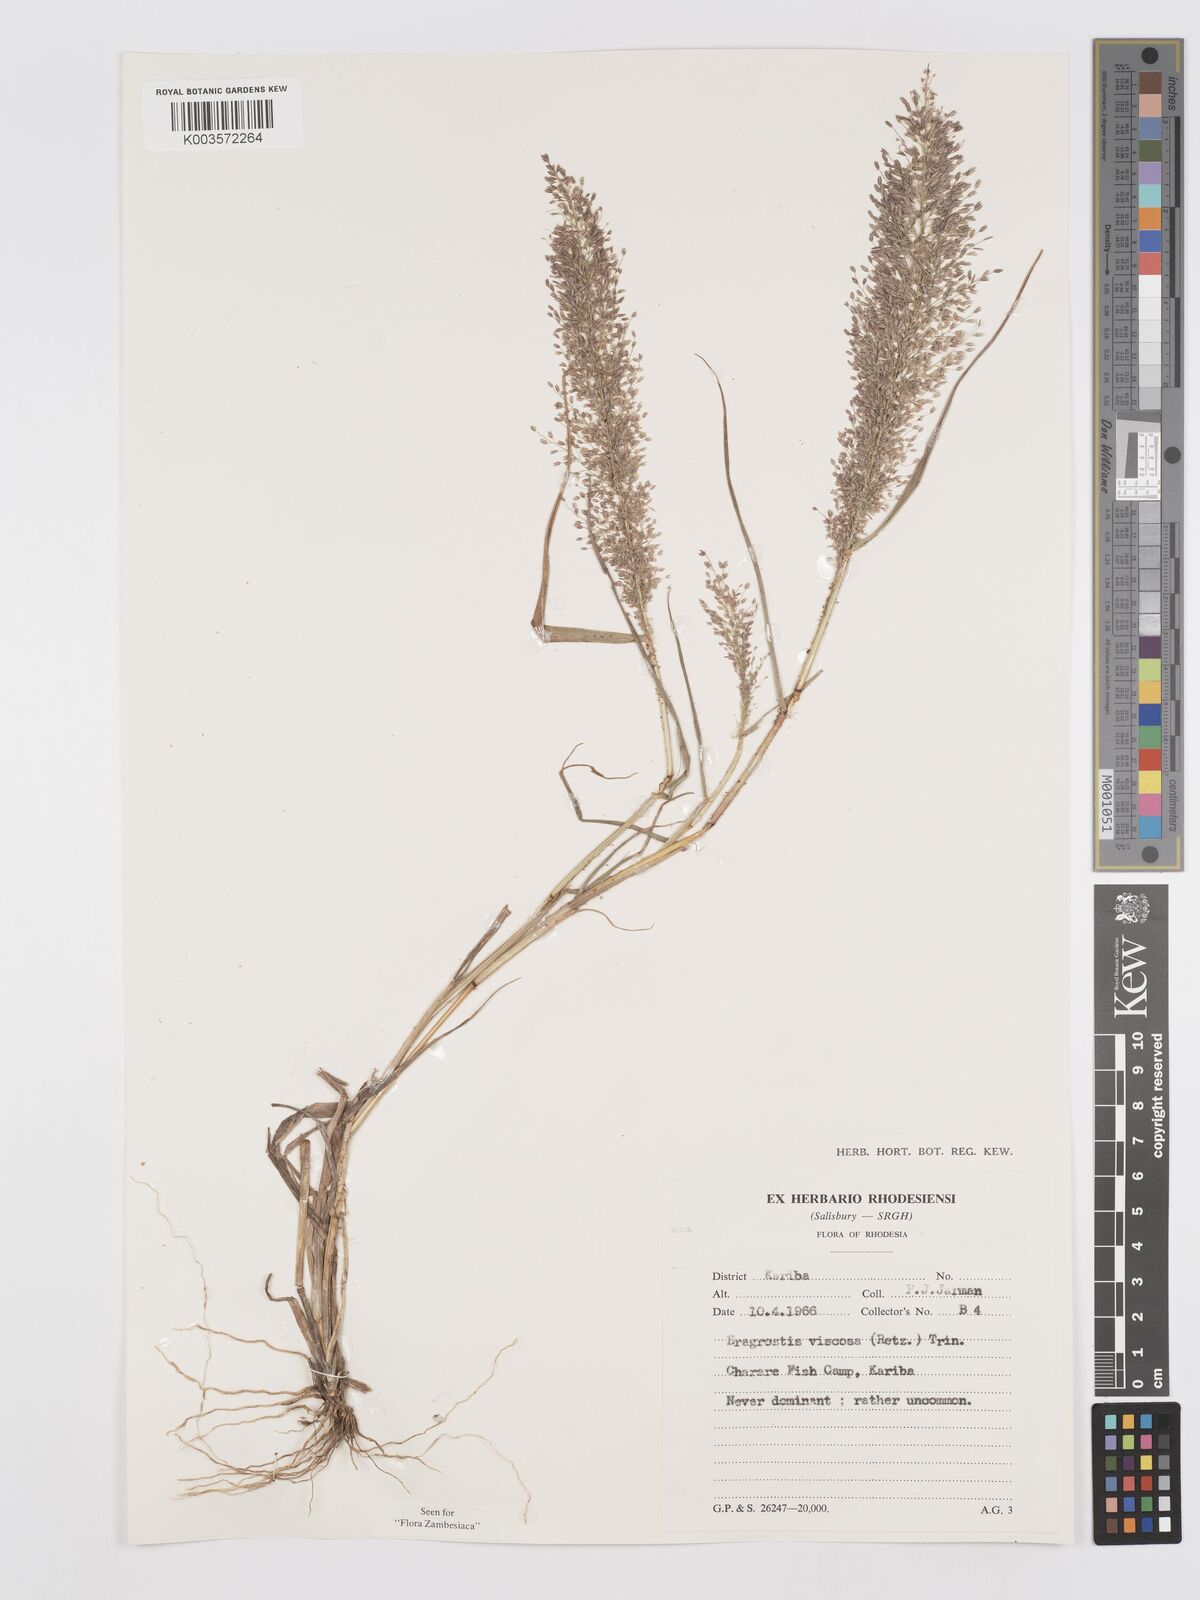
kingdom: Plantae
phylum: Tracheophyta
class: Liliopsida
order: Poales
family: Poaceae
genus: Eragrostis
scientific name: Eragrostis
